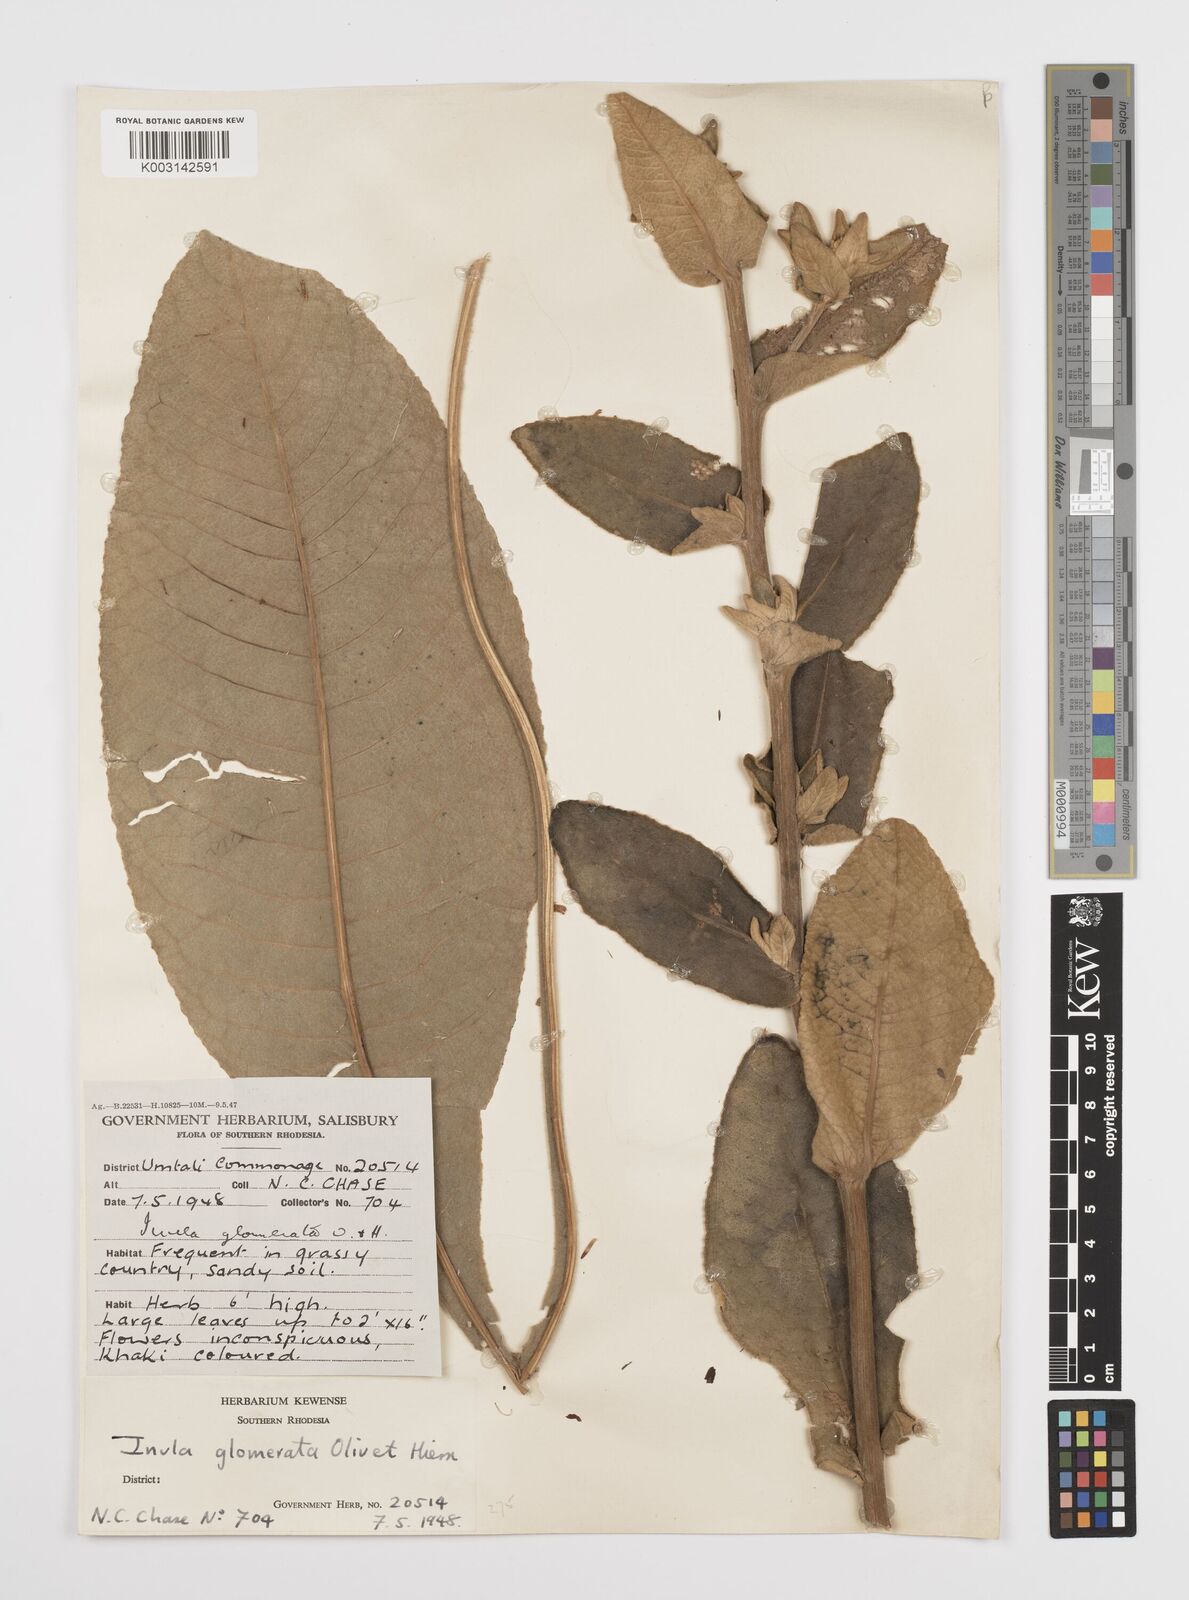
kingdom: Plantae
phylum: Tracheophyta
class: Magnoliopsida
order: Asterales
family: Asteraceae
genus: Inula
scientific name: Inula glomerata
